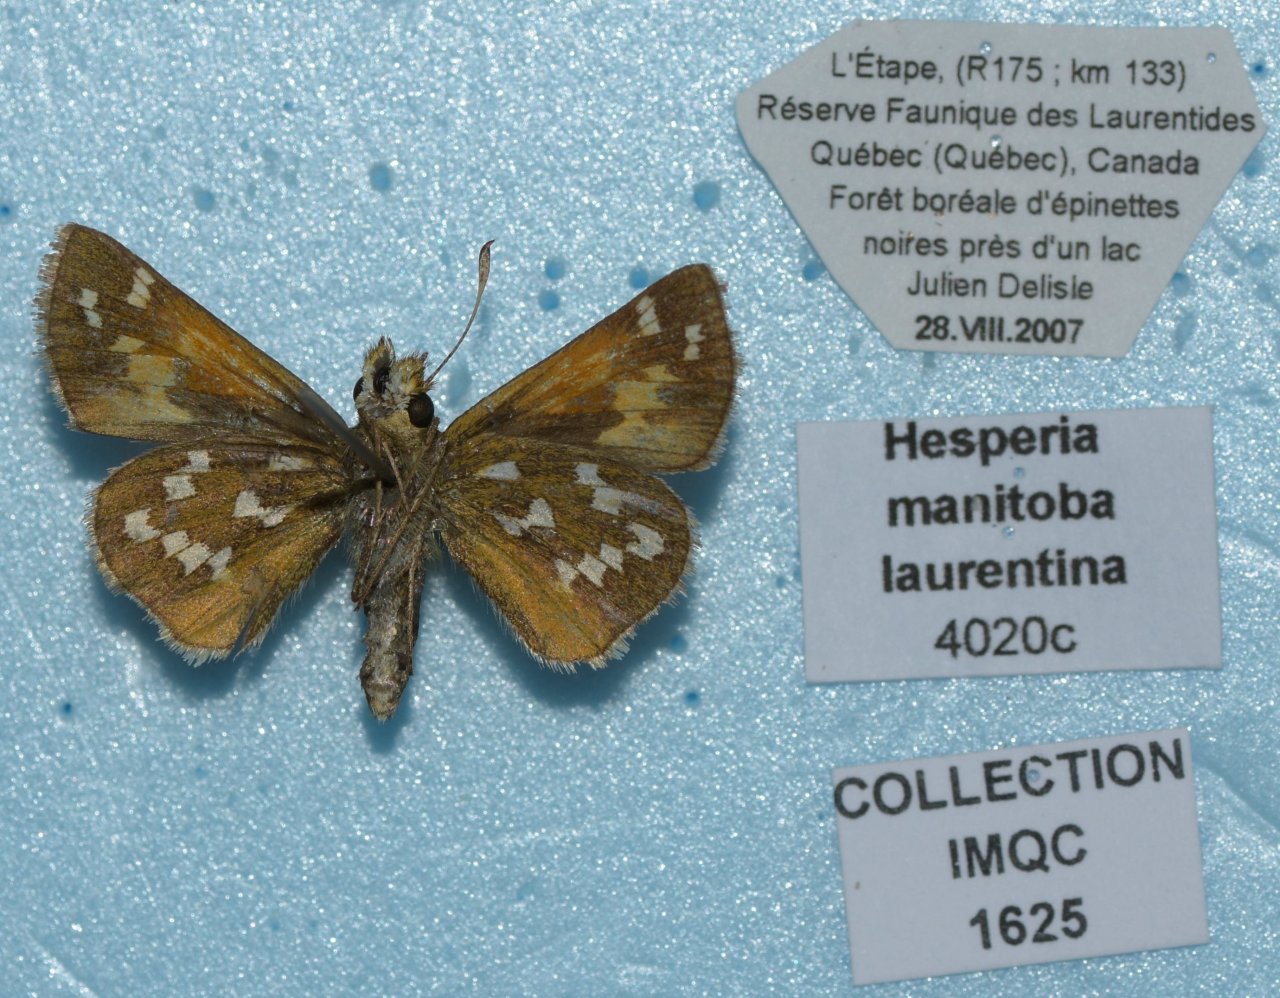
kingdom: Animalia
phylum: Arthropoda
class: Insecta
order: Lepidoptera
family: Hesperiidae
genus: Hesperia
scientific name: Hesperia comma
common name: Common Branded Skipper
